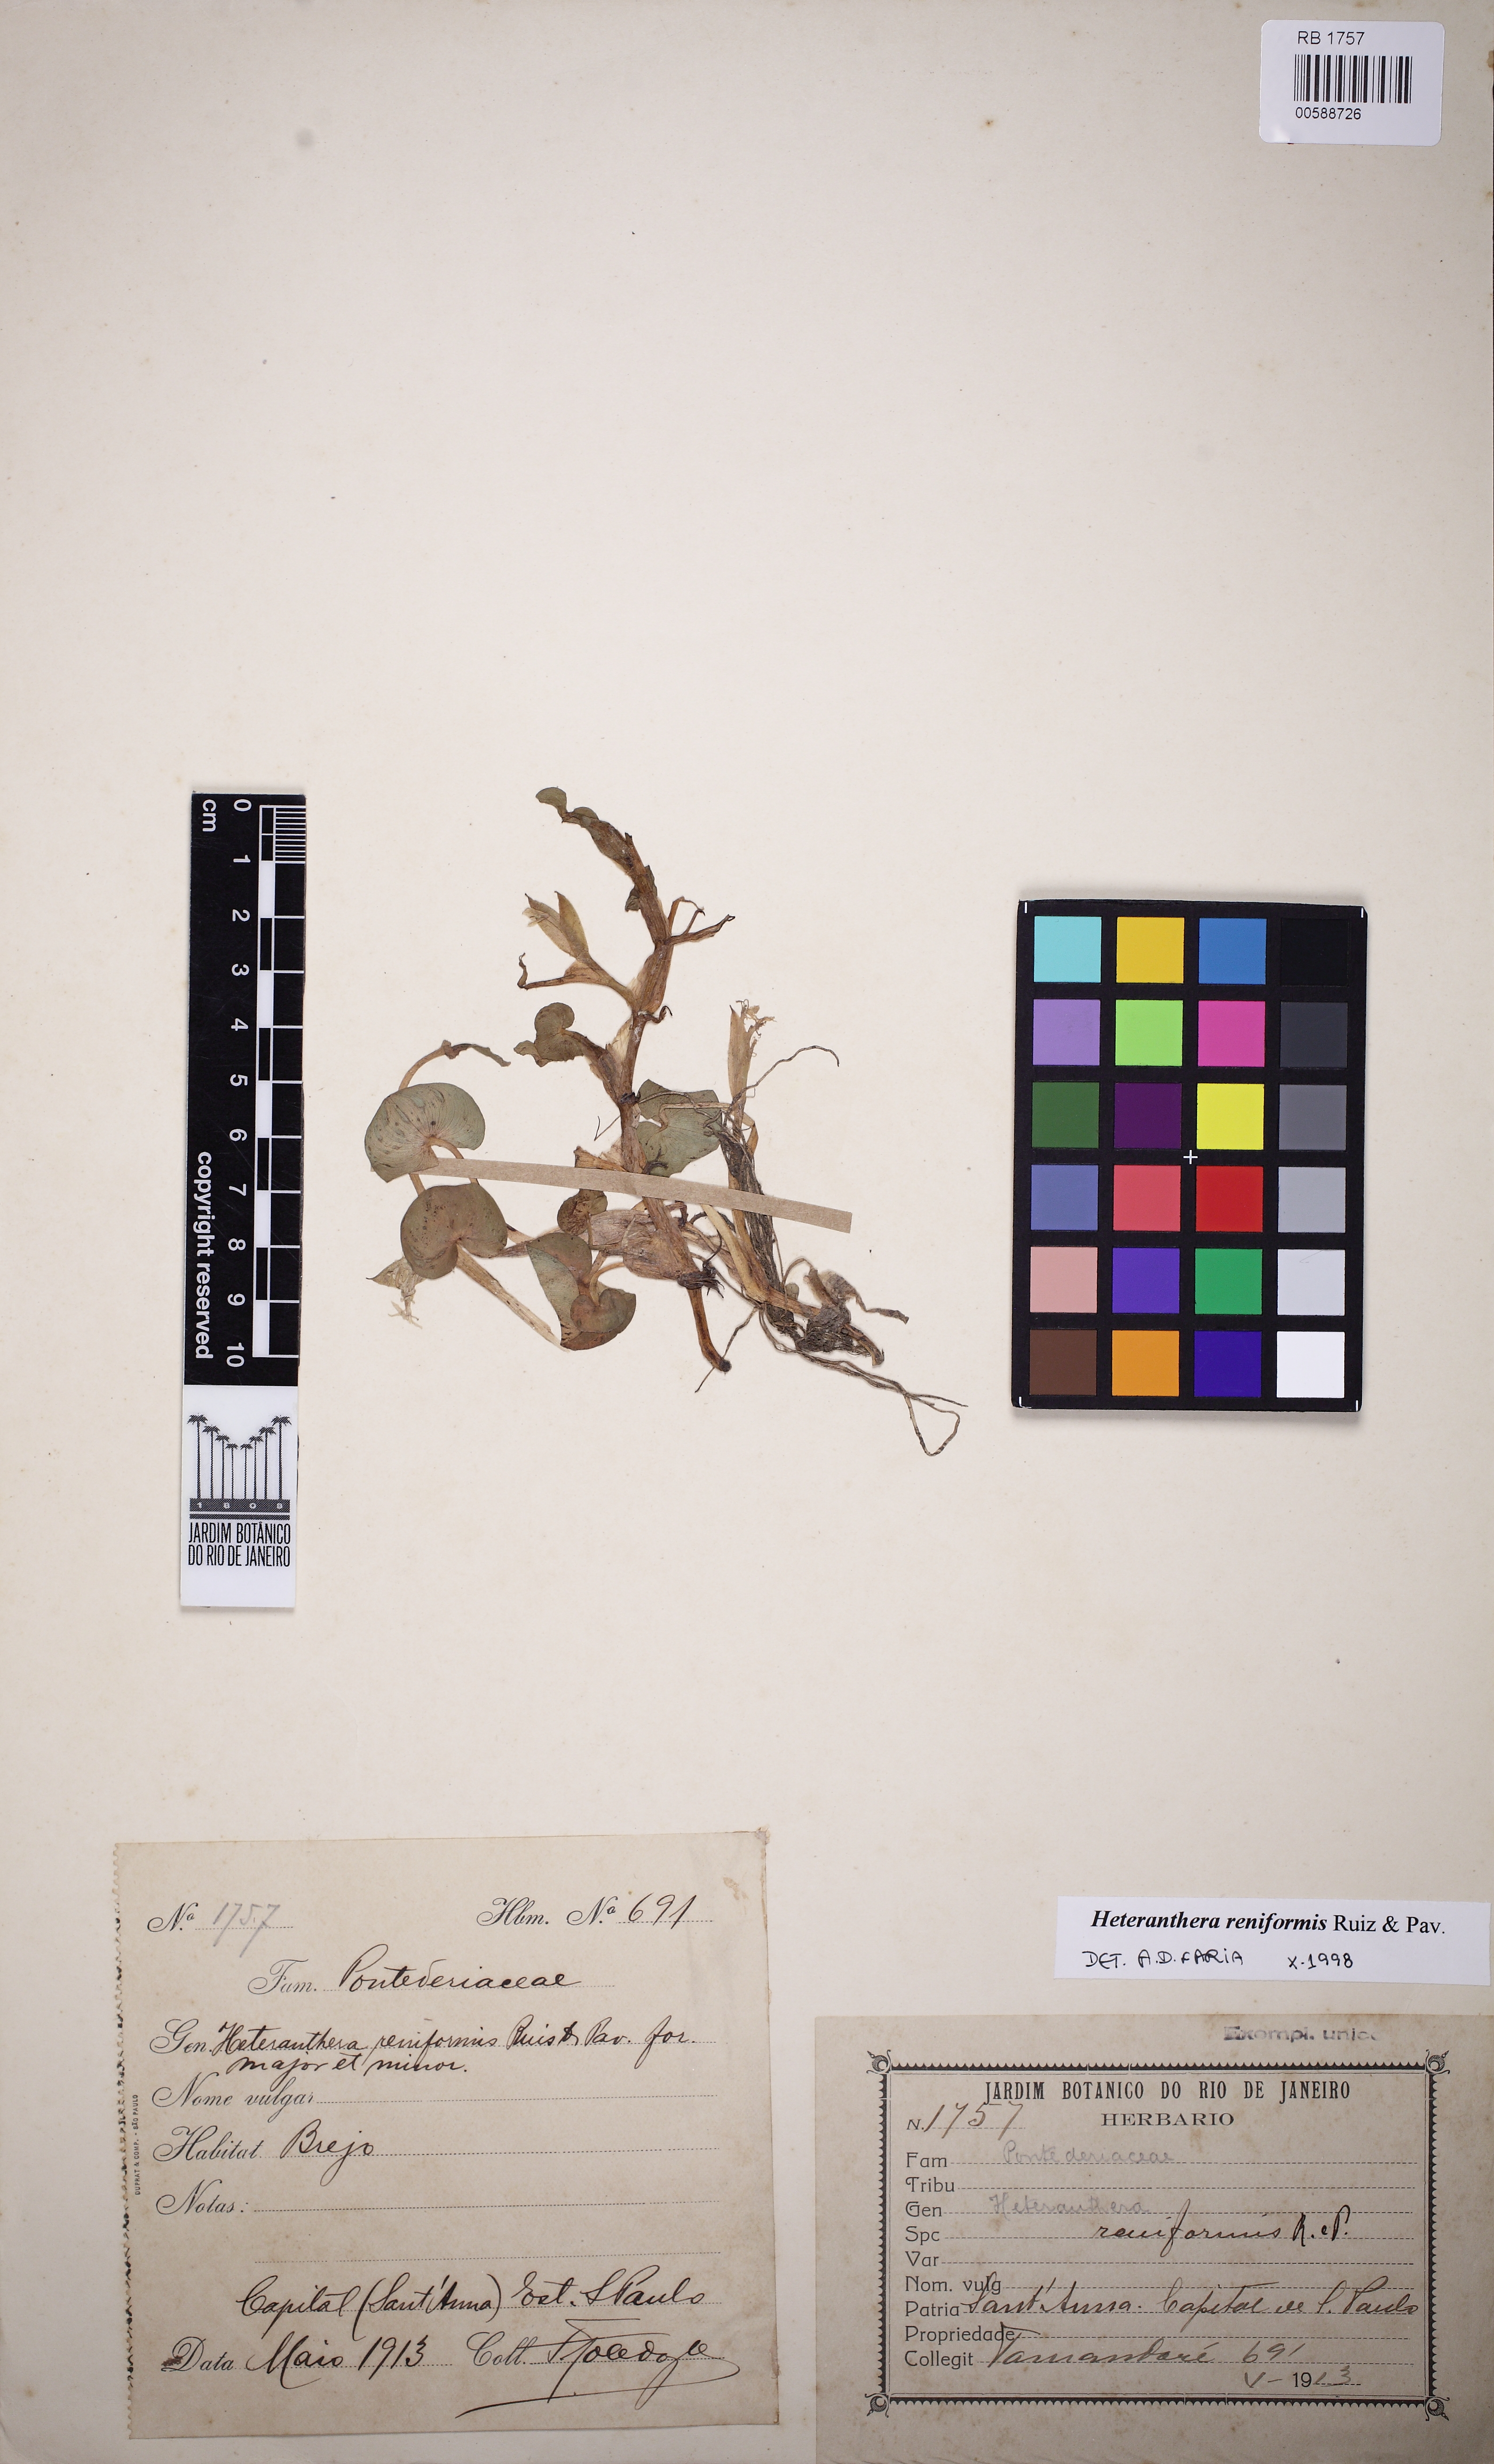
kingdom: Plantae
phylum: Tracheophyta
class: Liliopsida
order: Commelinales
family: Pontederiaceae
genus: Heteranthera
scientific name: Heteranthera reniformis
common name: Kidneyleaf mudplantain
